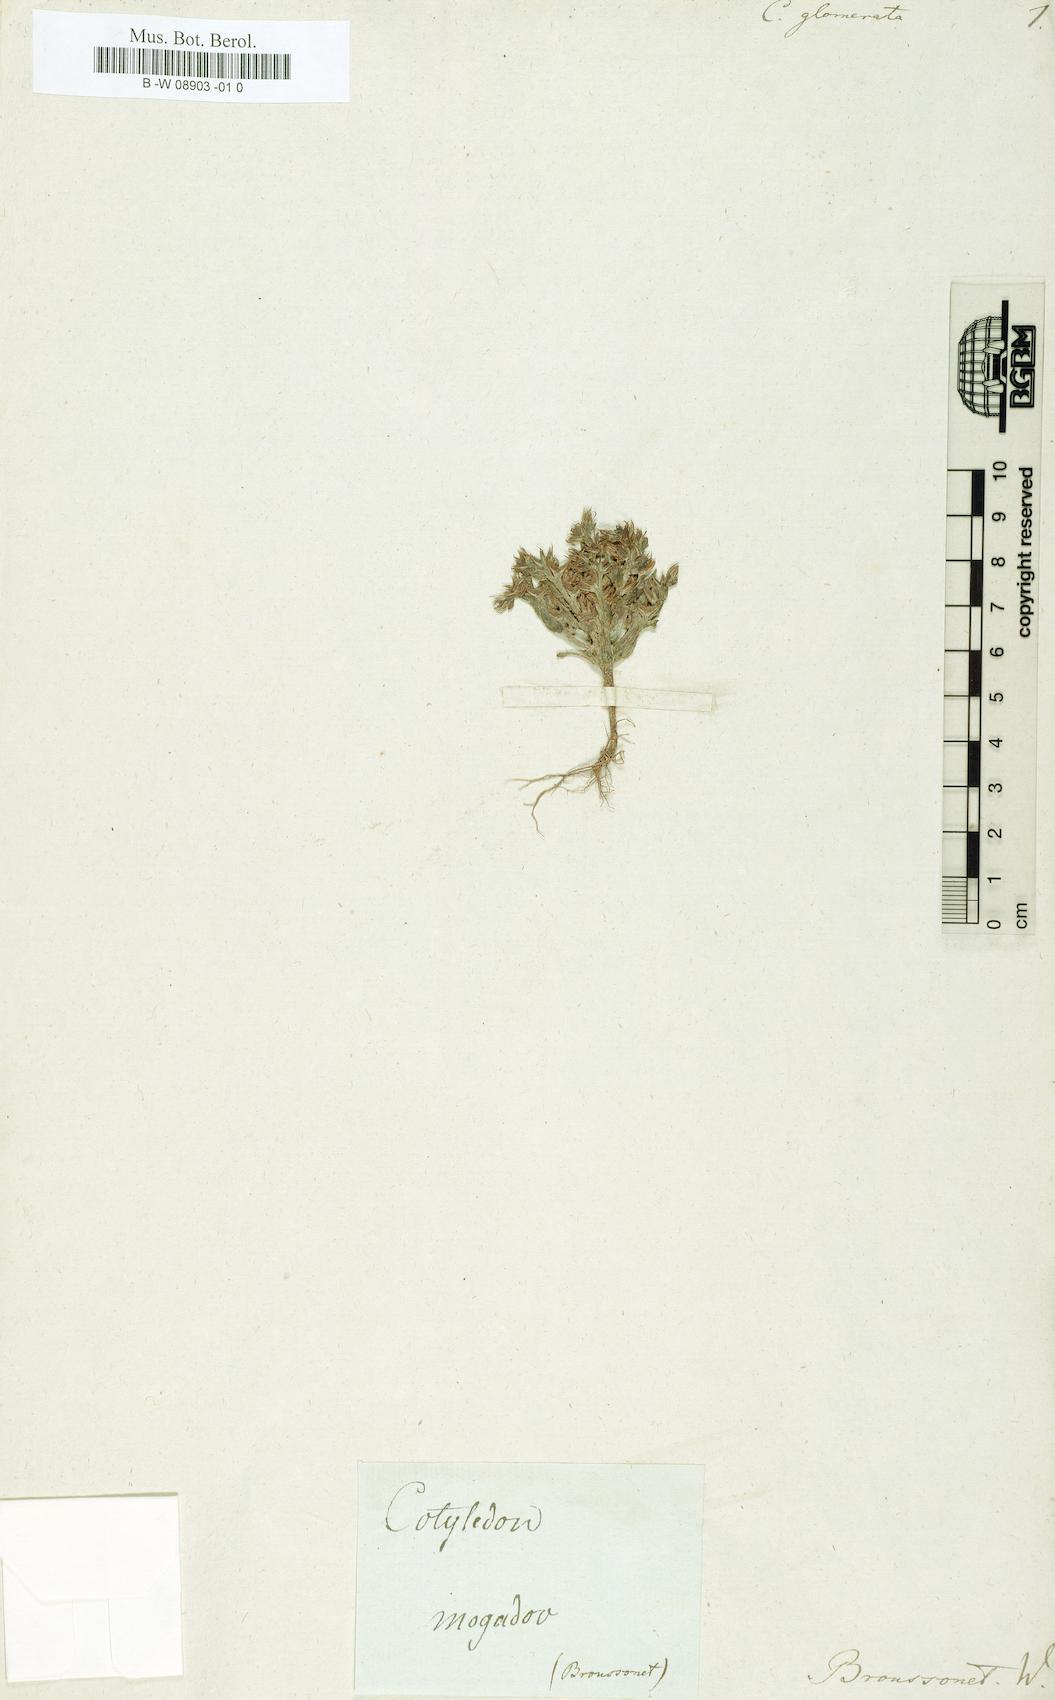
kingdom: Plantae
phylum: Tracheophyta
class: Magnoliopsida
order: Saxifragales
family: Crassulaceae
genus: Cotyledon
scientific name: Cotyledon
